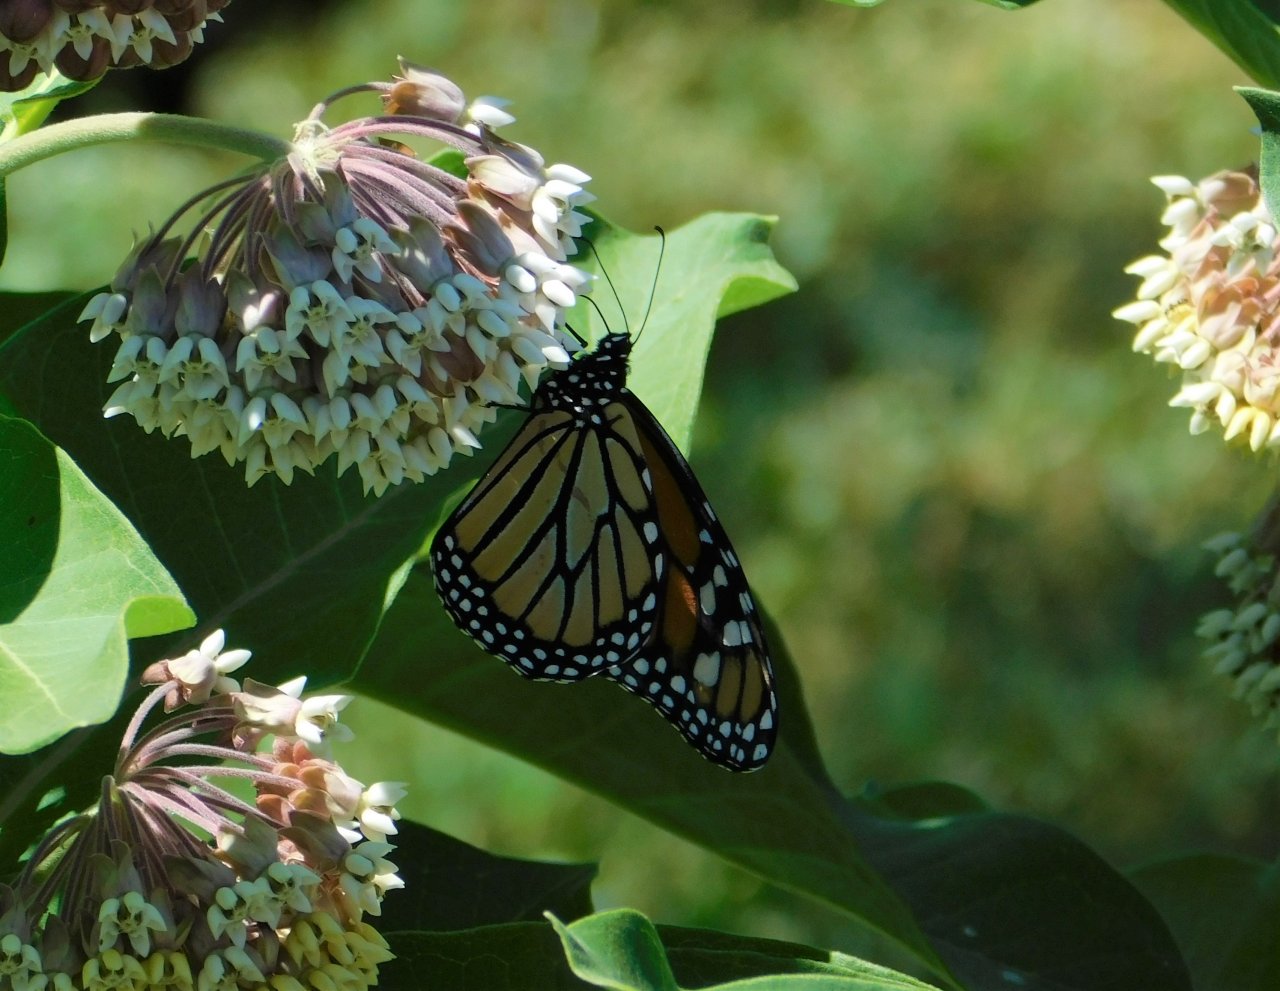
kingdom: Animalia
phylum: Arthropoda
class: Insecta
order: Lepidoptera
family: Nymphalidae
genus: Danaus
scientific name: Danaus plexippus
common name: Monarch
